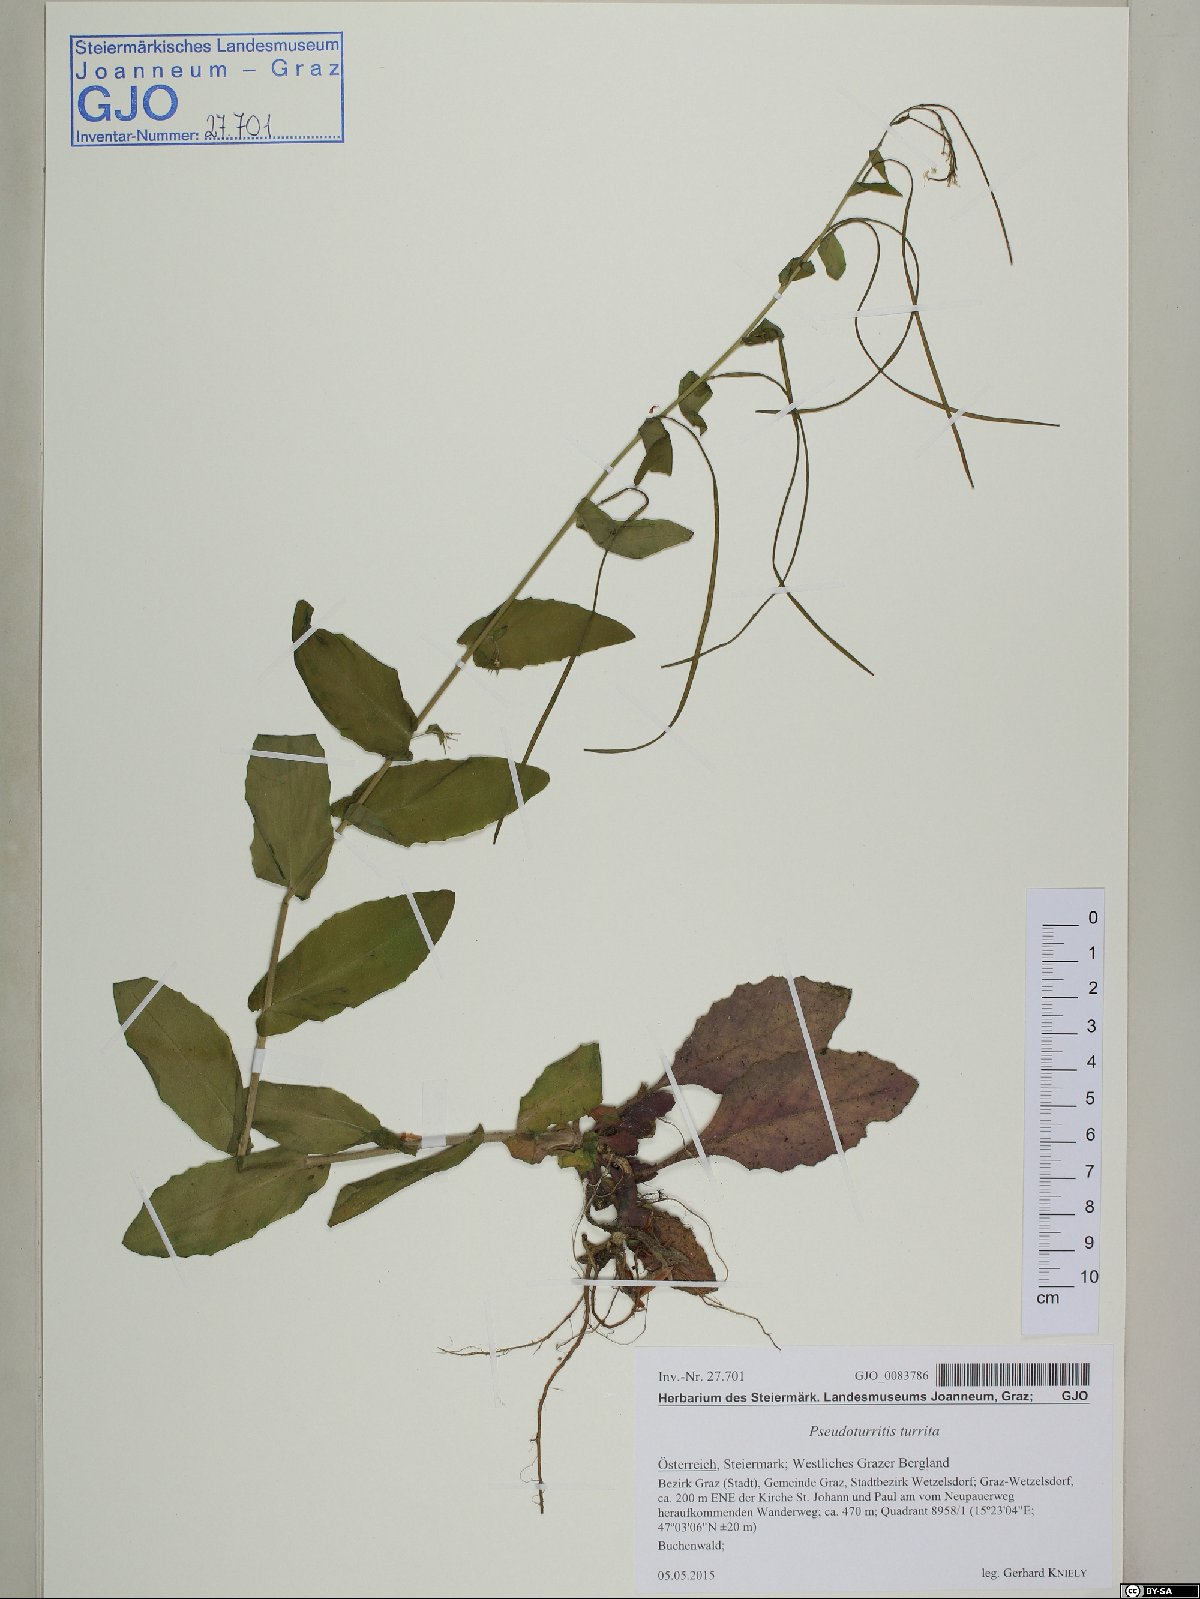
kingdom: Plantae
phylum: Tracheophyta
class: Magnoliopsida
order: Brassicales
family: Brassicaceae
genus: Pseudoturritis
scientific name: Pseudoturritis turrita
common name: Tower cress
